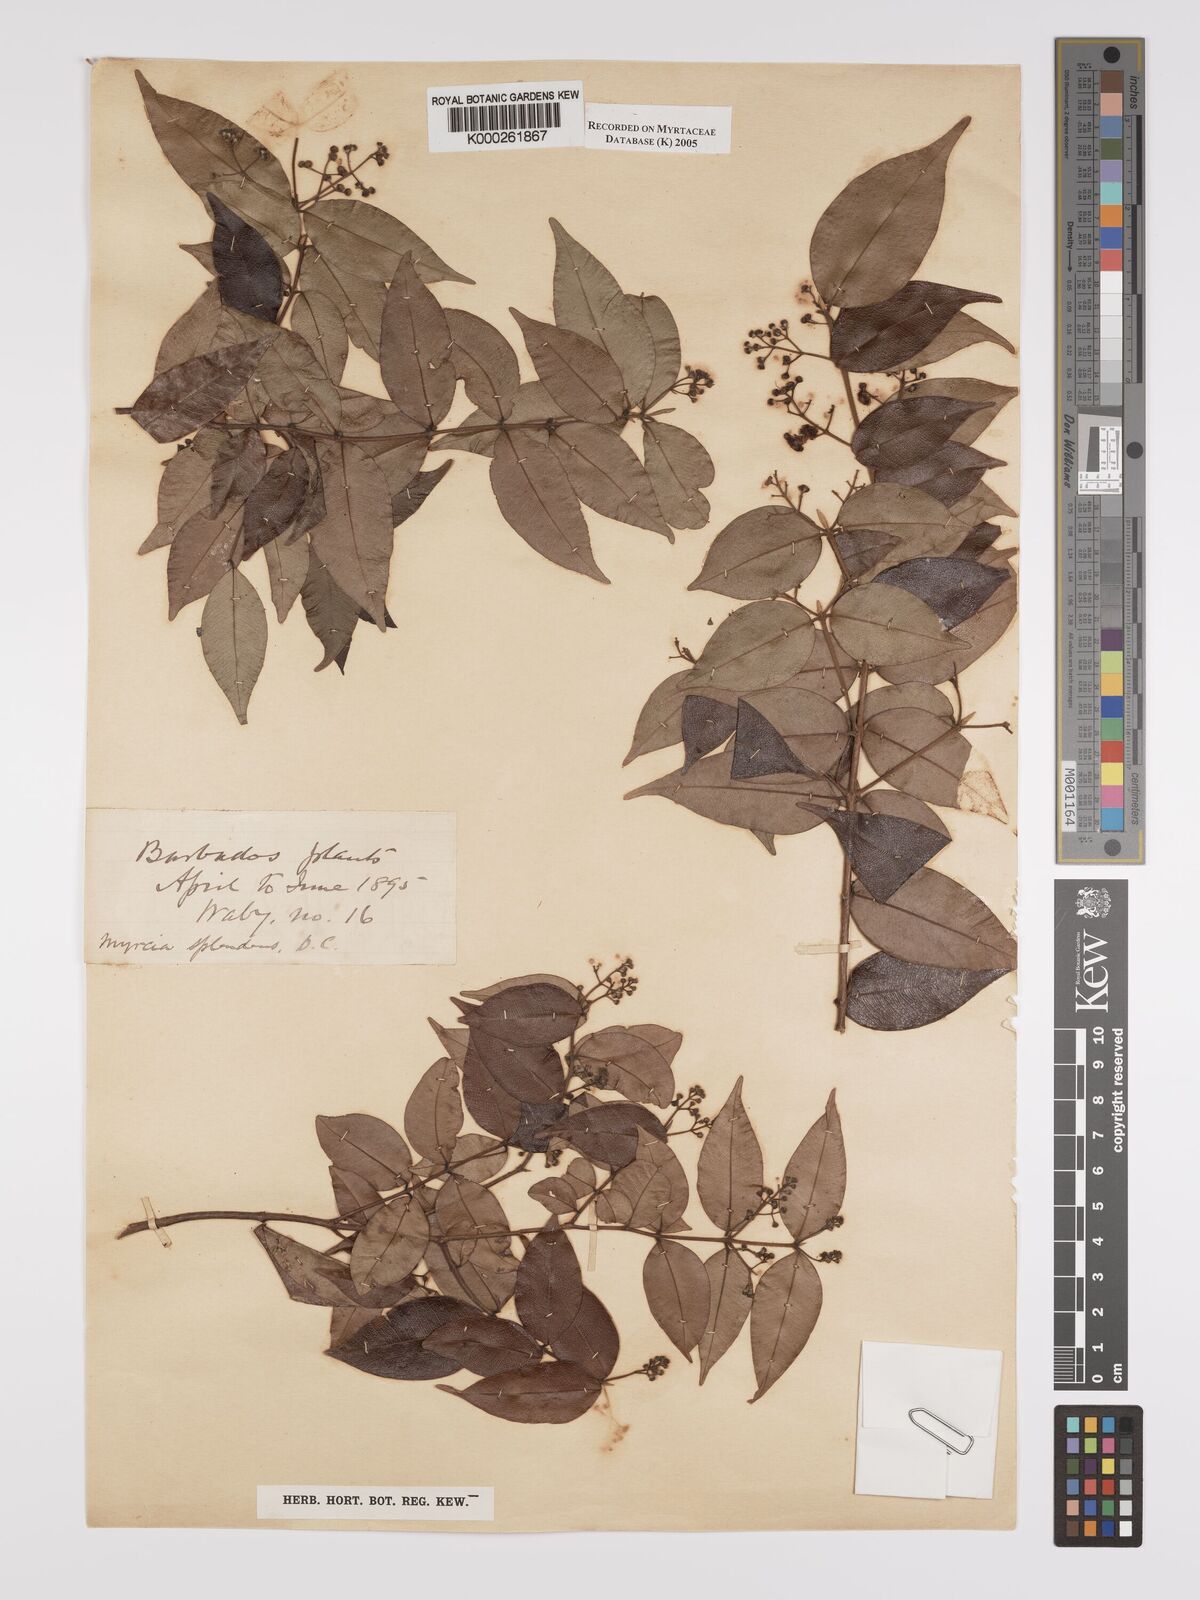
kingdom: Plantae
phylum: Tracheophyta
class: Magnoliopsida
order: Myrtales
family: Myrtaceae
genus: Myrcia
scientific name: Myrcia splendens
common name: Surinam cherry
